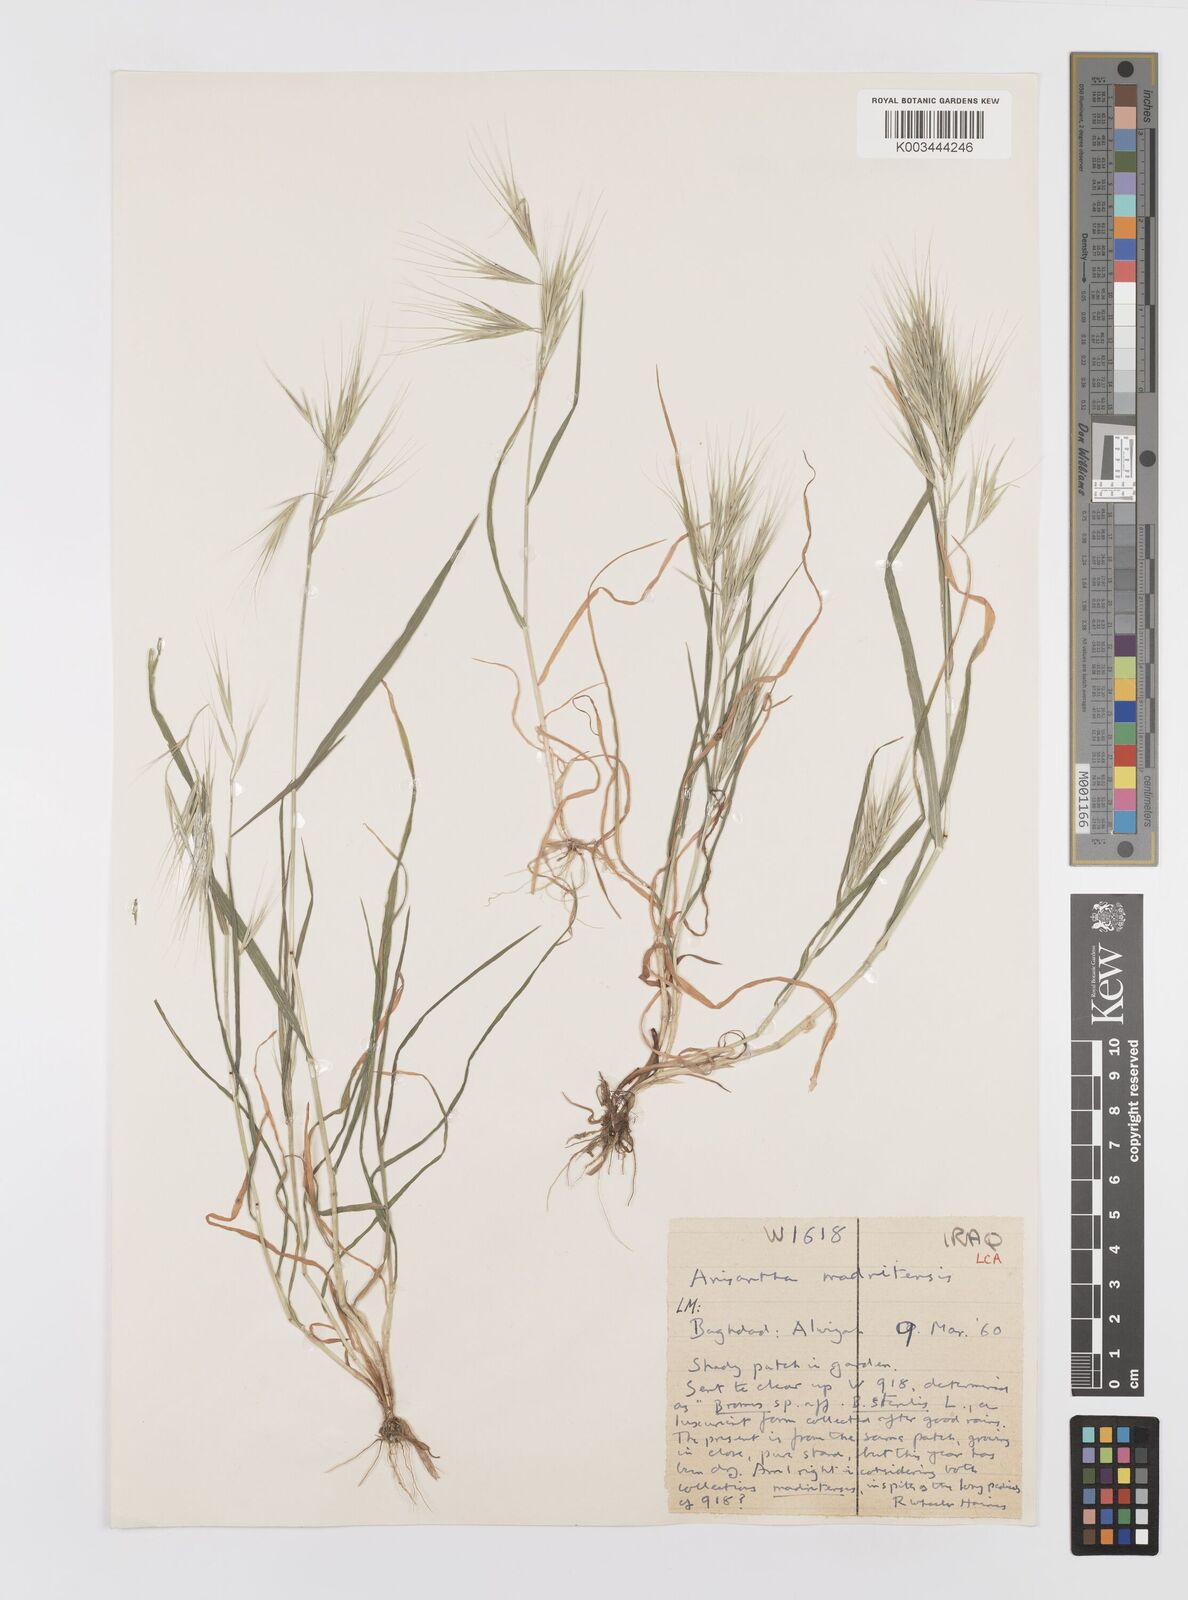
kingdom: Plantae
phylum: Tracheophyta
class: Liliopsida
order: Poales
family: Poaceae
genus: Bromus
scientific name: Bromus madritensis
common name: Compact brome
